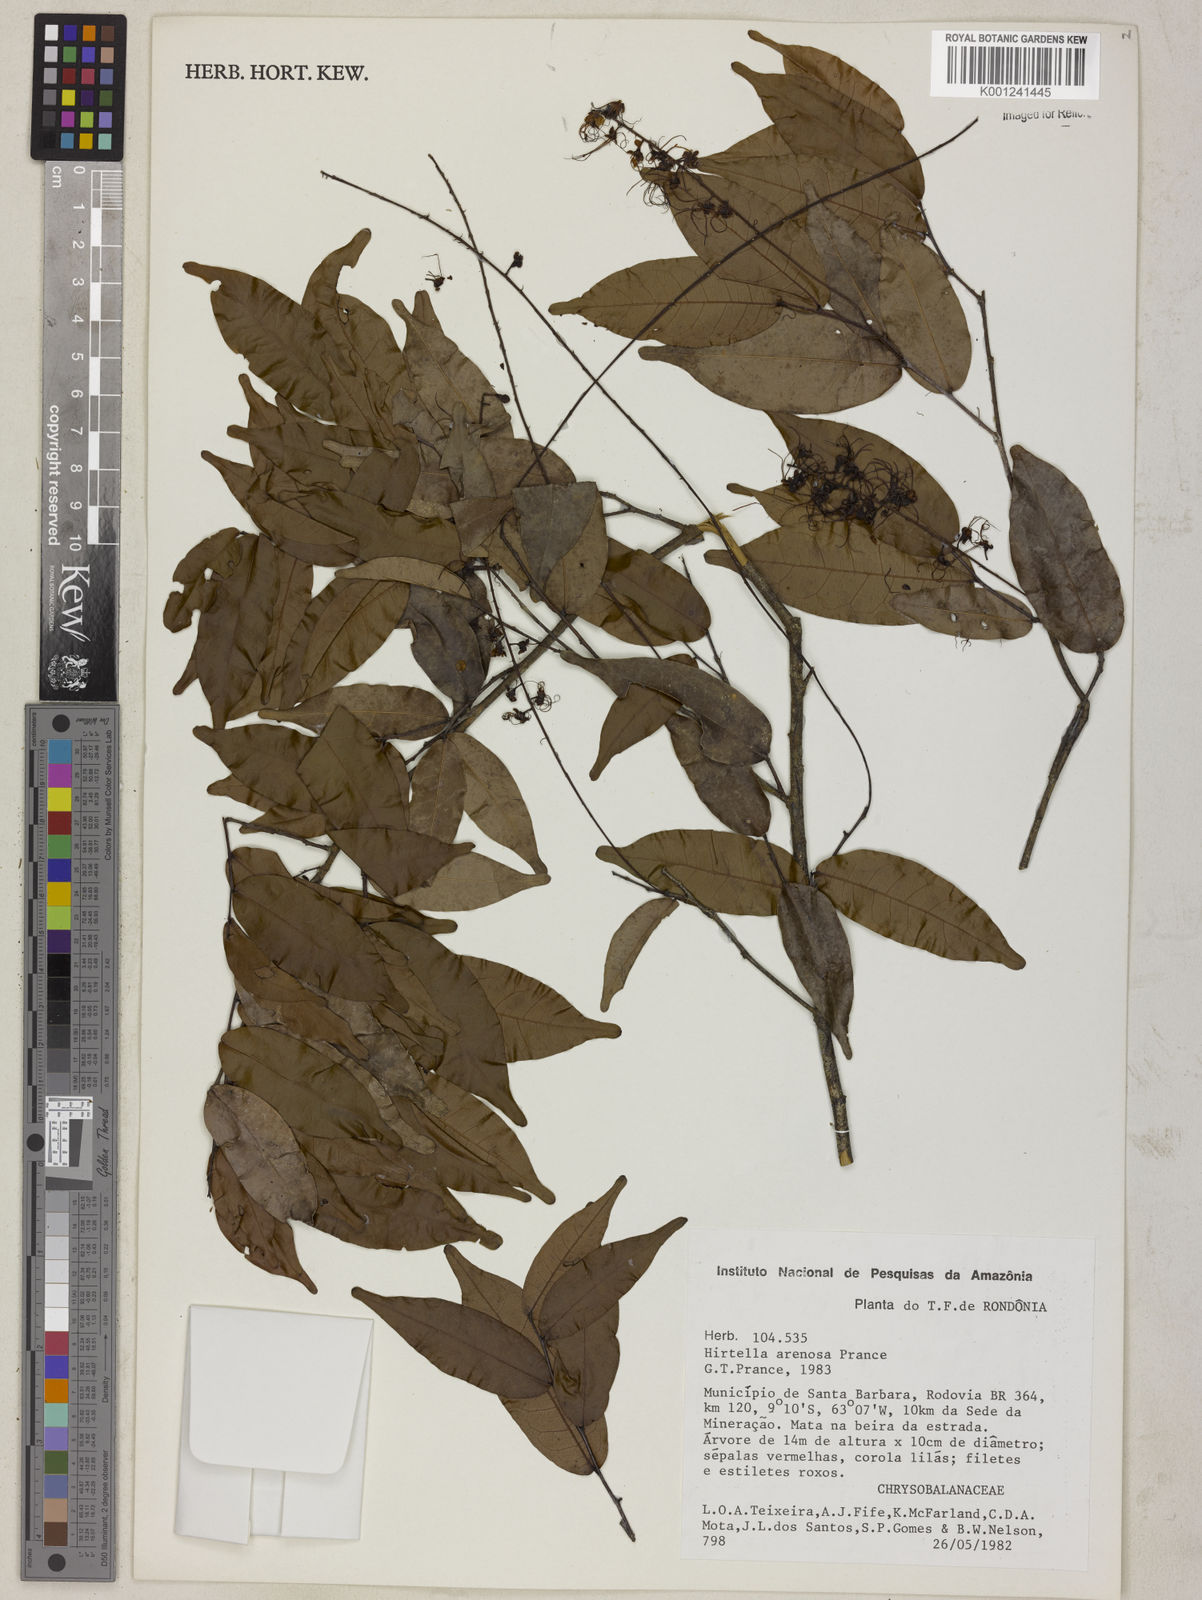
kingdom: Plantae
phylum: Tracheophyta
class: Magnoliopsida
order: Malpighiales
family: Chrysobalanaceae
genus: Hirtella
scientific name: Hirtella arenosa
